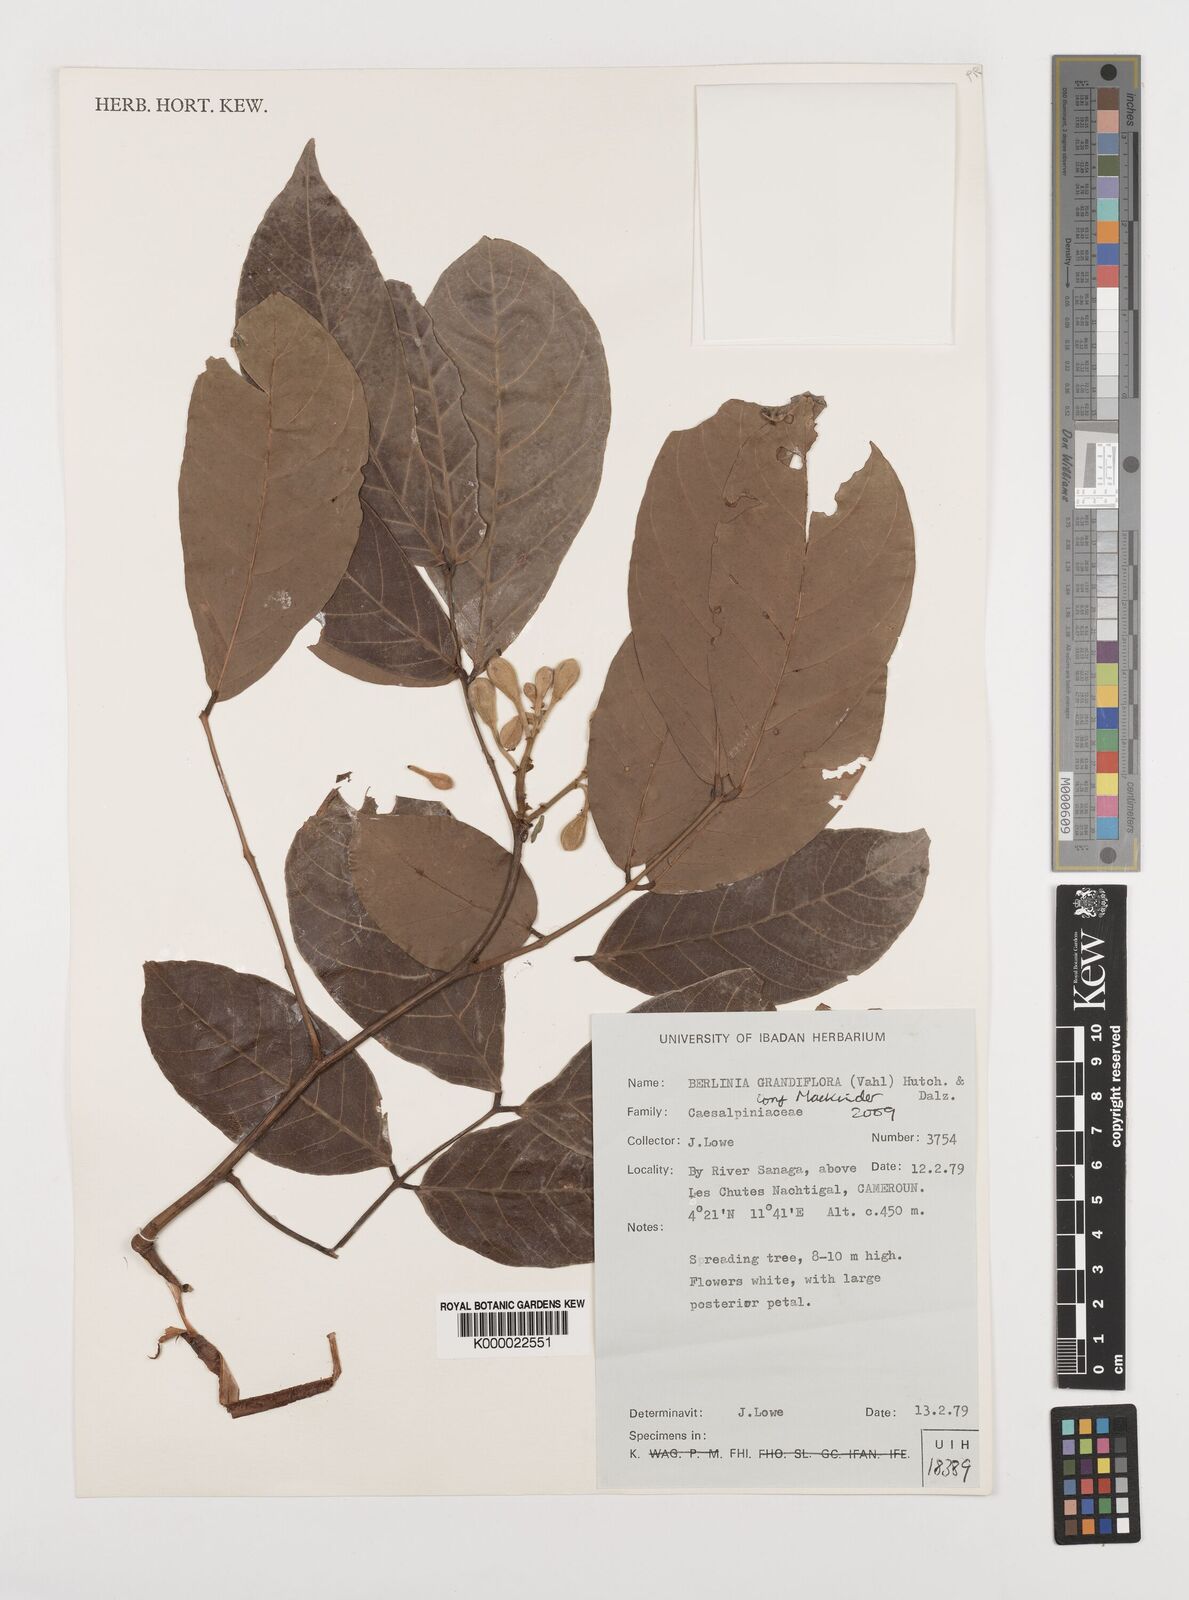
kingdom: Plantae
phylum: Tracheophyta
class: Magnoliopsida
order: Fabales
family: Fabaceae
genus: Berlinia
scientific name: Berlinia grandiflora
